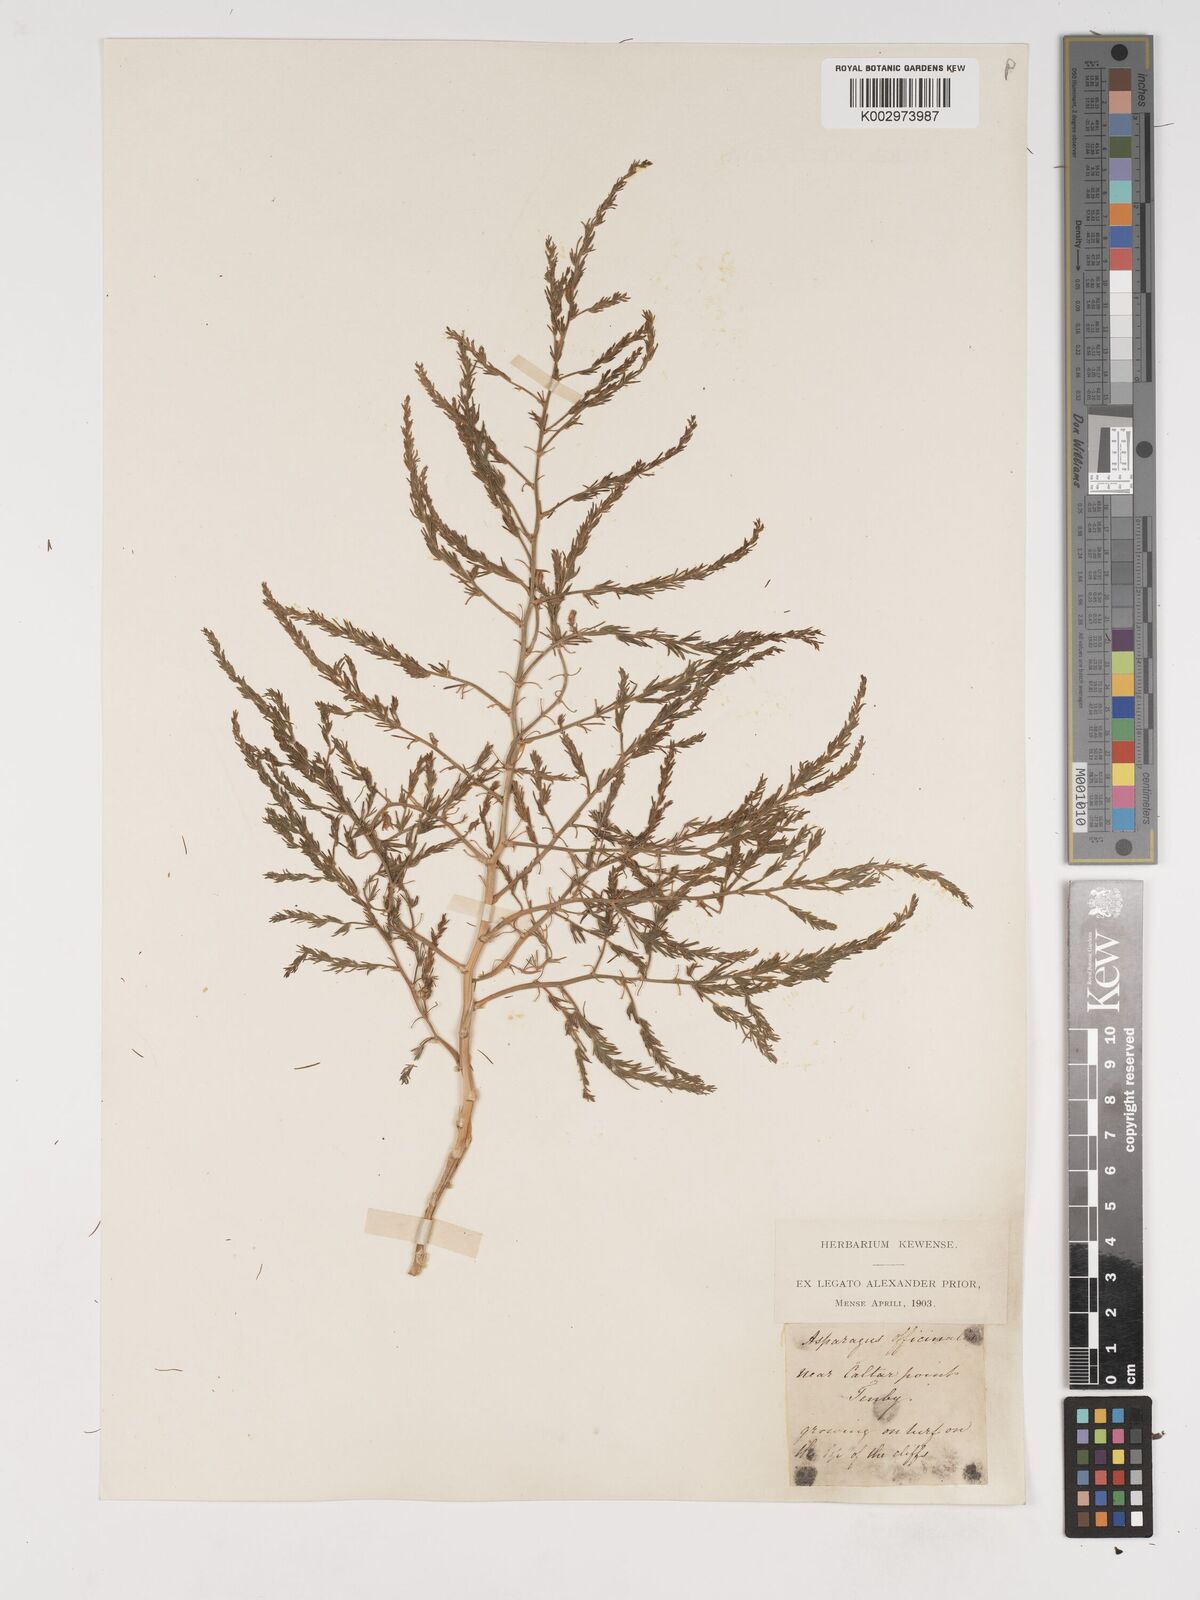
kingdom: Plantae
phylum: Tracheophyta
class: Liliopsida
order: Asparagales
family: Asparagaceae
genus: Asparagus
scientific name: Asparagus maritimus
